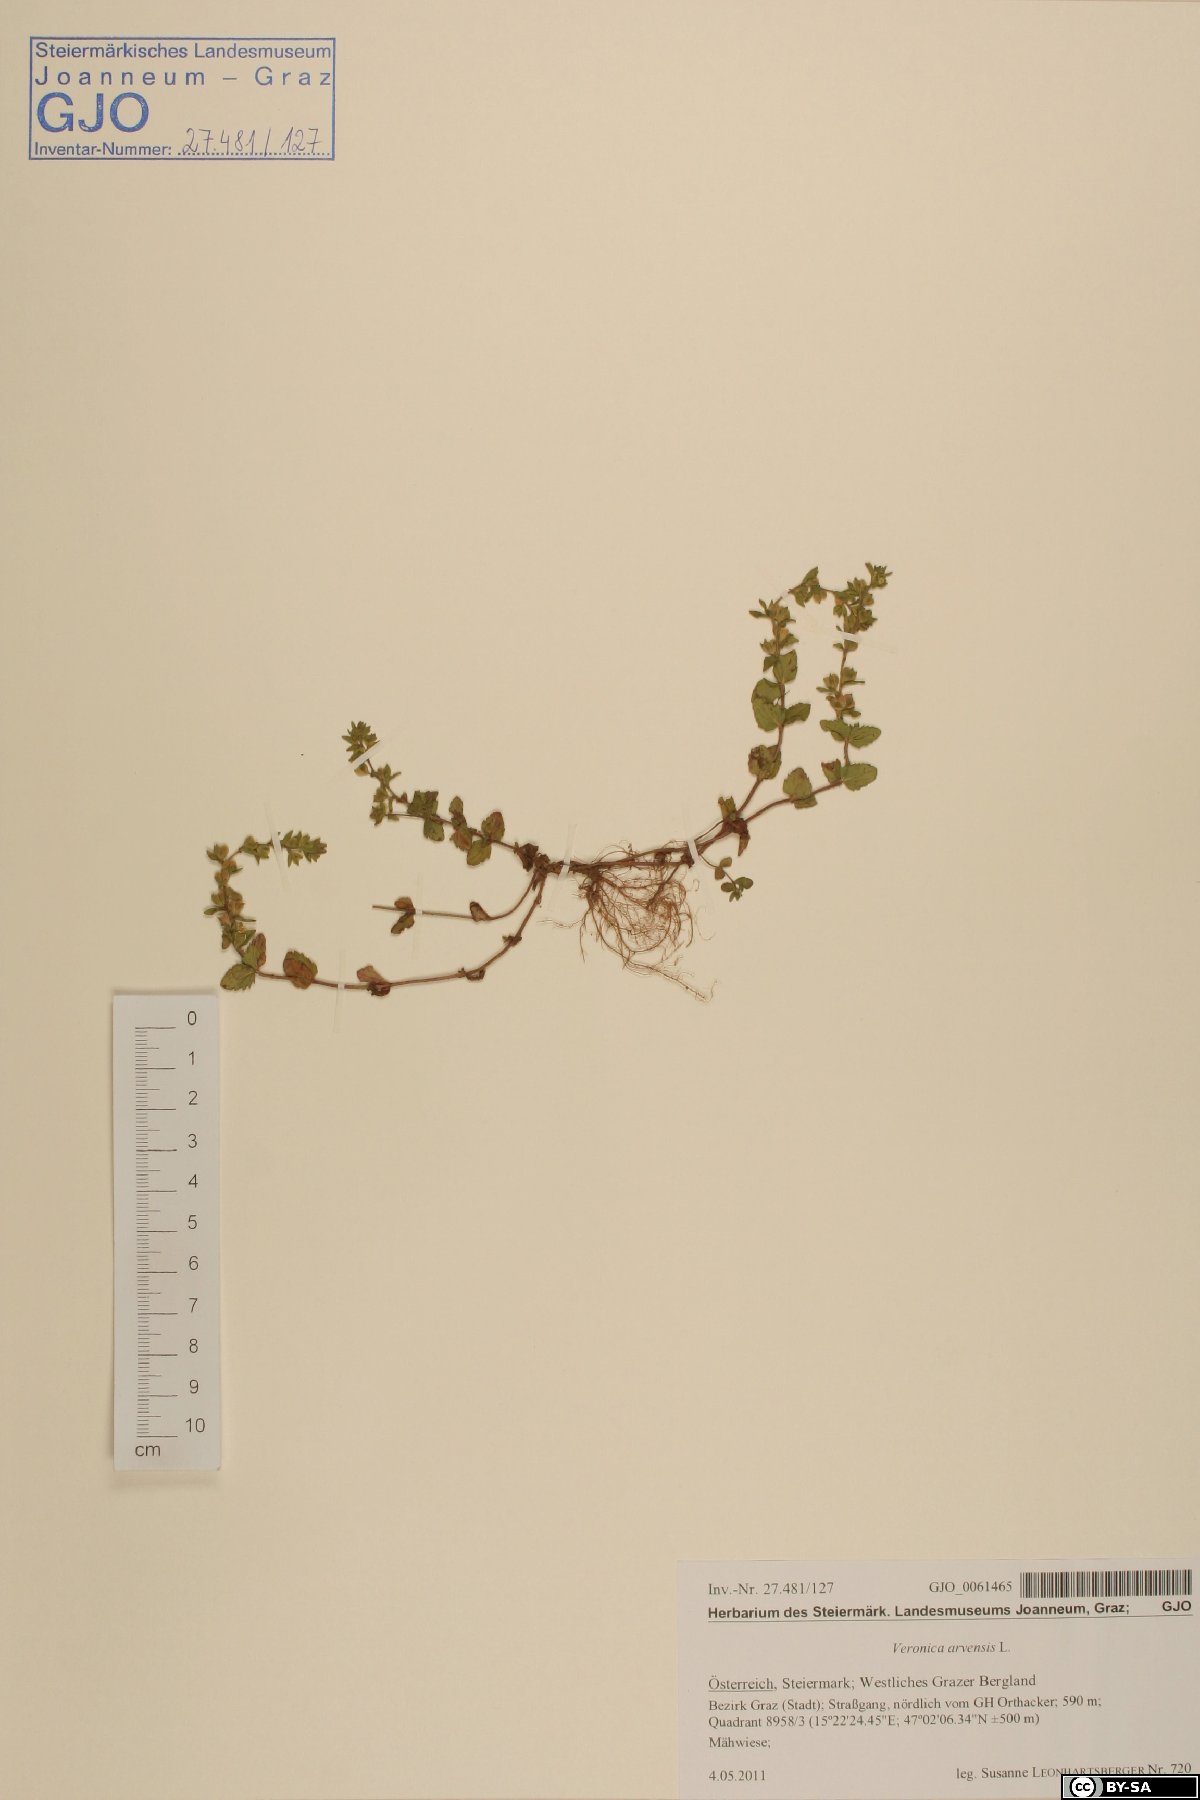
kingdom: Plantae
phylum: Tracheophyta
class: Magnoliopsida
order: Lamiales
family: Plantaginaceae
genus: Veronica
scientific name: Veronica arvensis
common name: Corn speedwell
